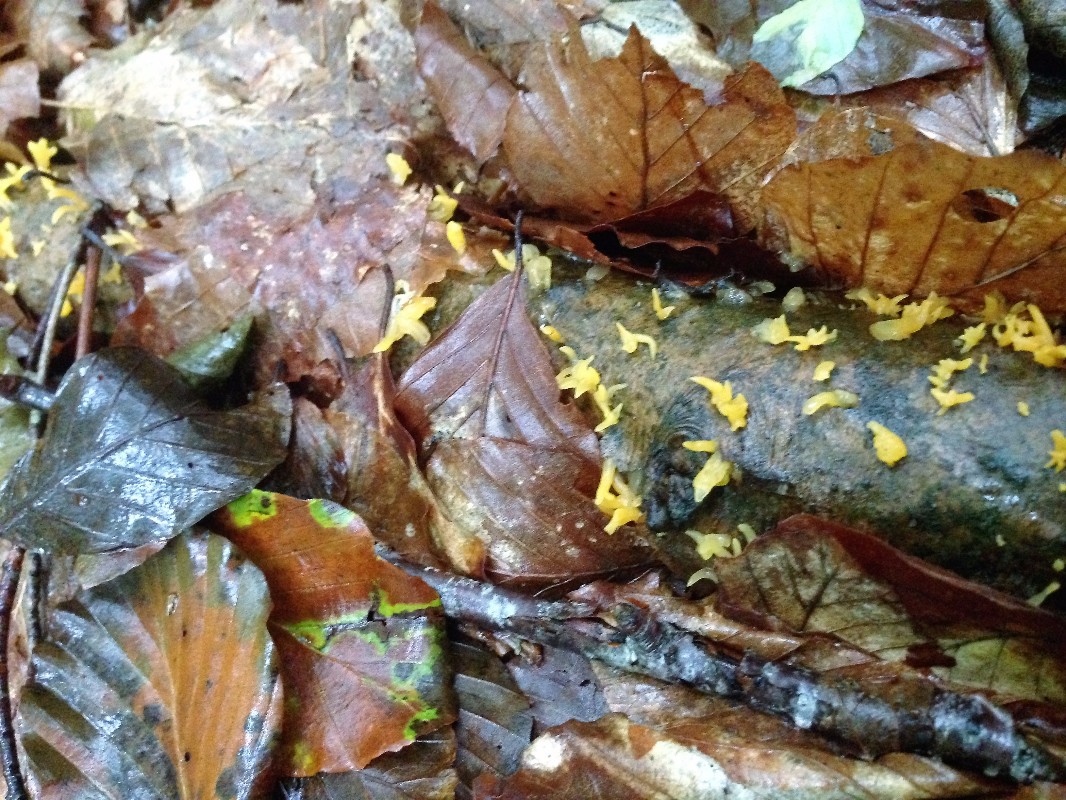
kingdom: Fungi
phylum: Basidiomycota
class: Dacrymycetes
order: Dacrymycetales
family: Dacrymycetaceae
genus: Calocera
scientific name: Calocera cornea
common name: liden guldgaffel
